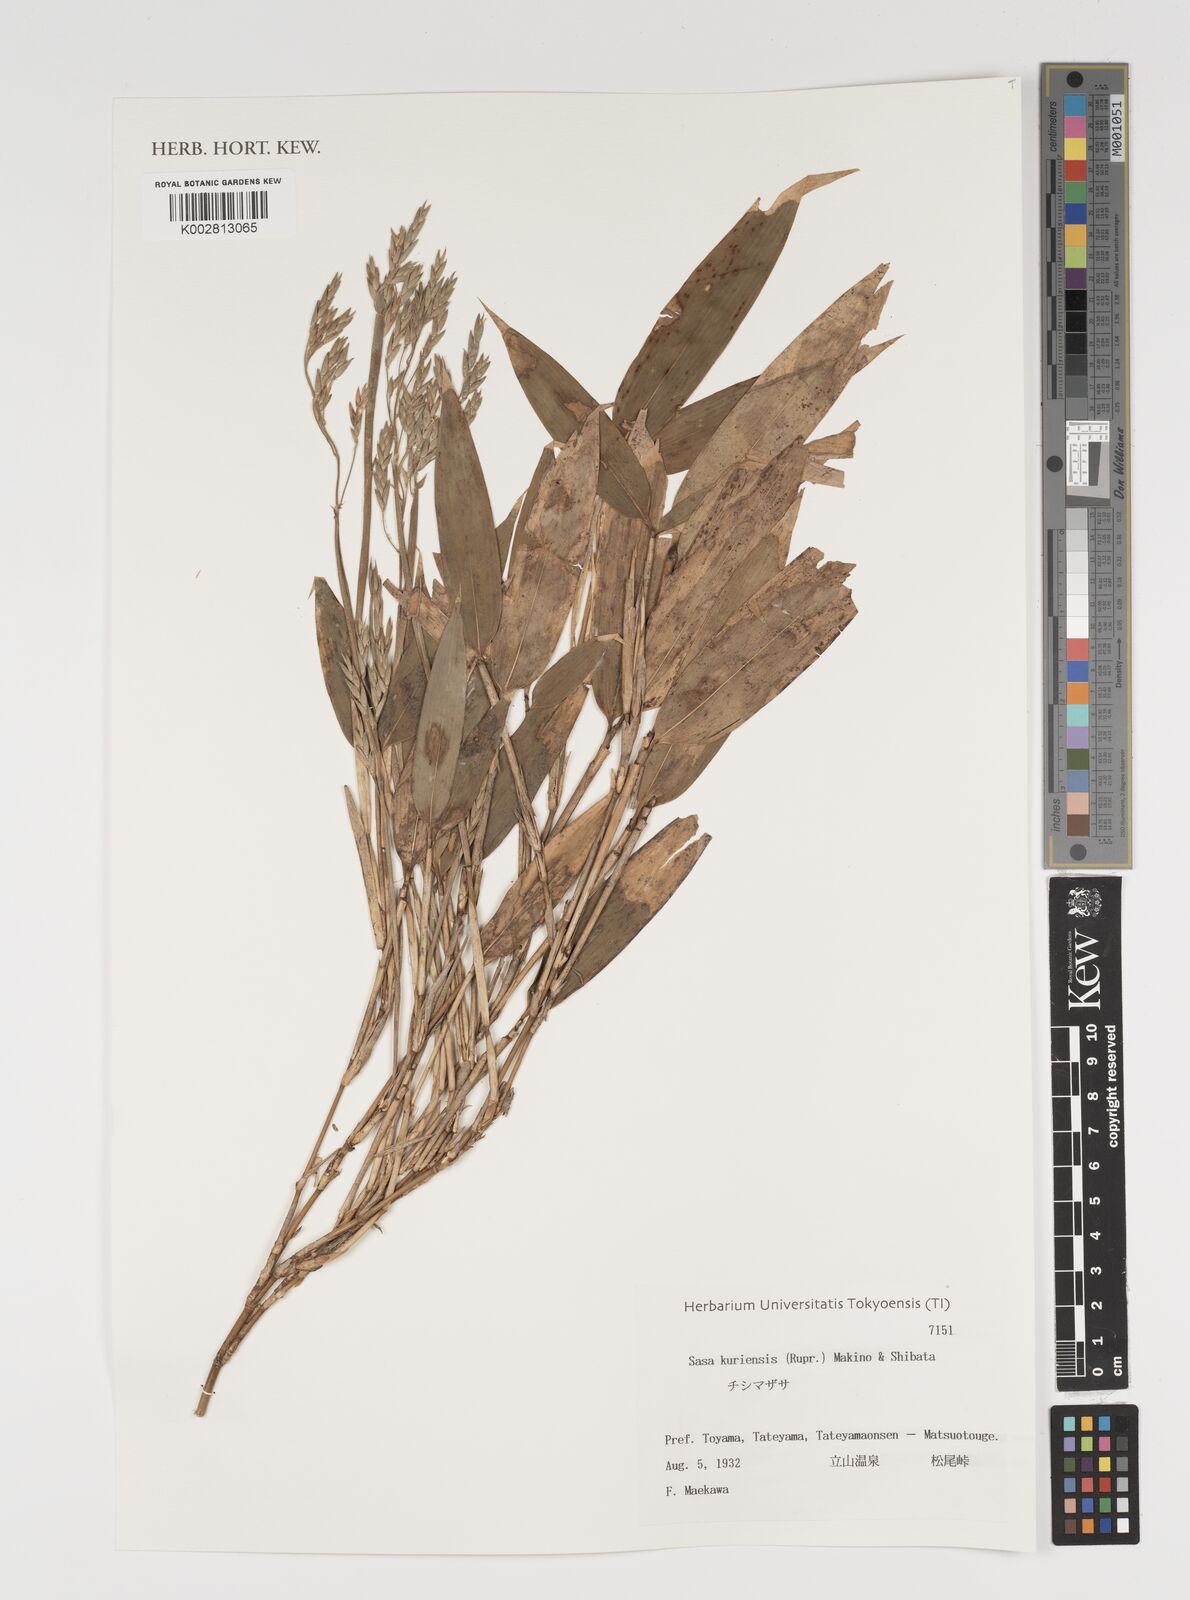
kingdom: Plantae
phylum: Tracheophyta
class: Liliopsida
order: Poales
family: Poaceae
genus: Sasa
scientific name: Sasa kurilensis
